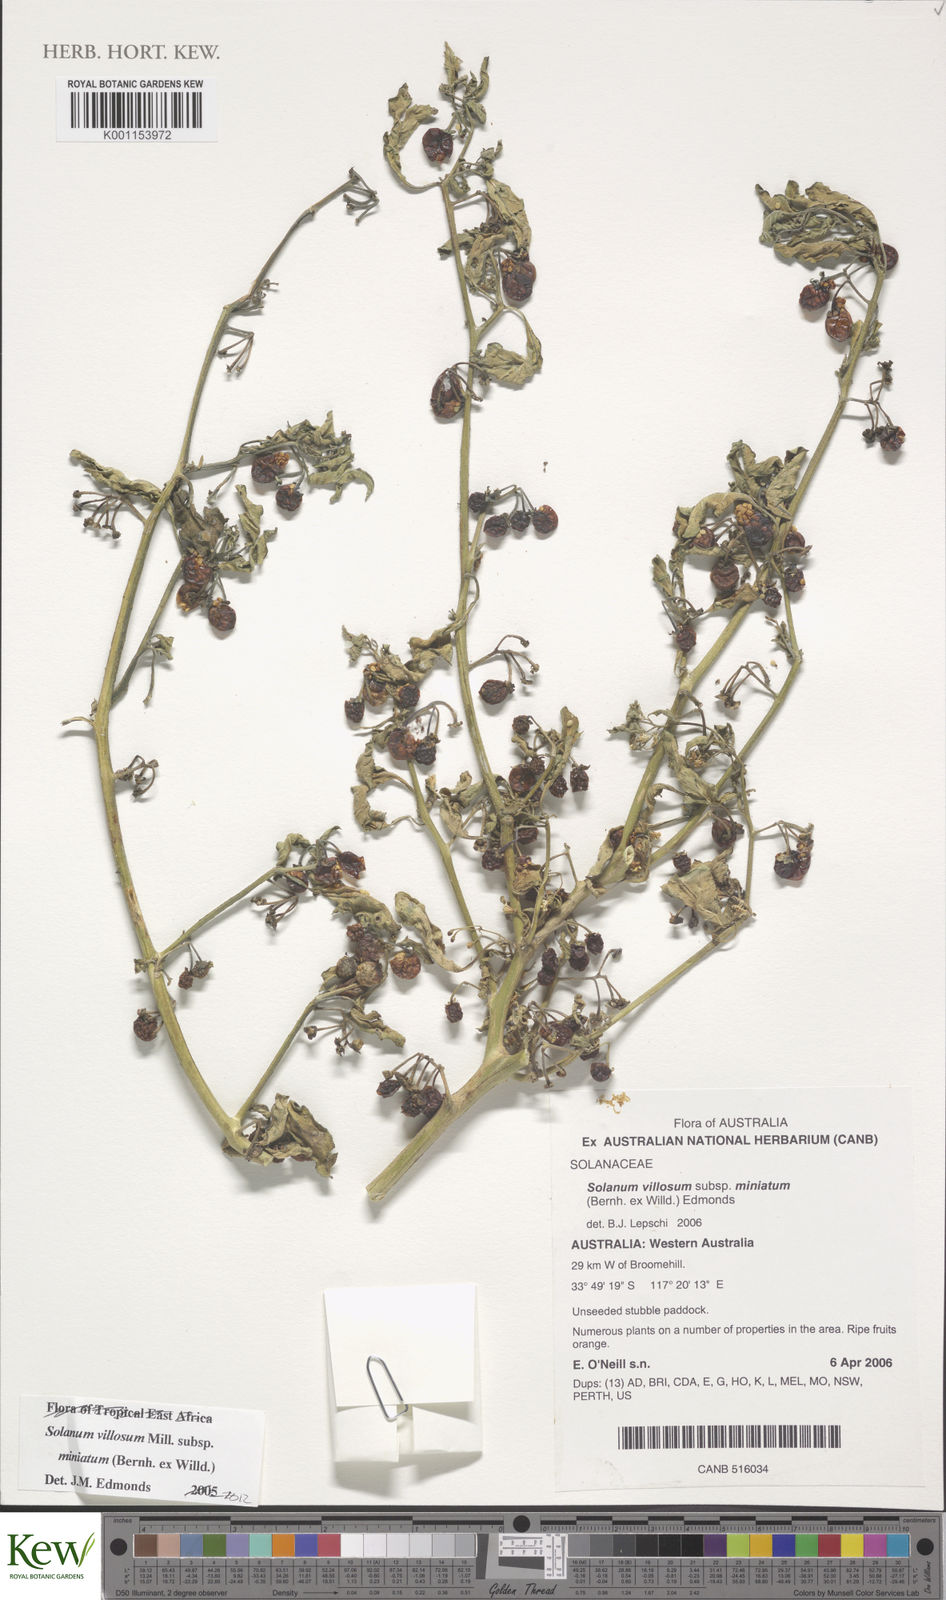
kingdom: Plantae
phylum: Tracheophyta
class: Magnoliopsida
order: Solanales
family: Solanaceae
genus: Solanum
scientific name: Solanum villosum
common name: Red nightshade
